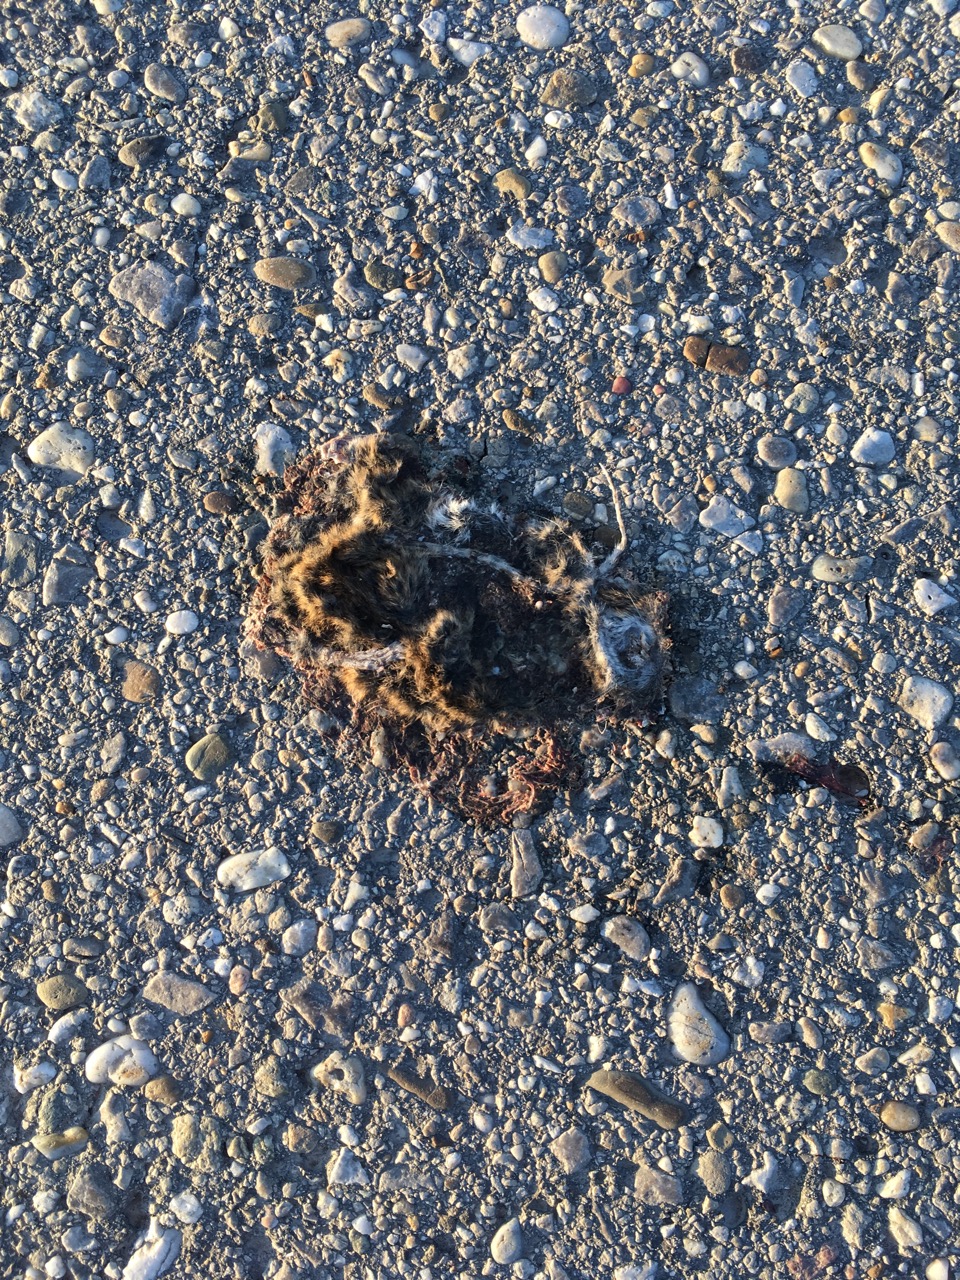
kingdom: Animalia
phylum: Chordata
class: Mammalia
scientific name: Mammalia
